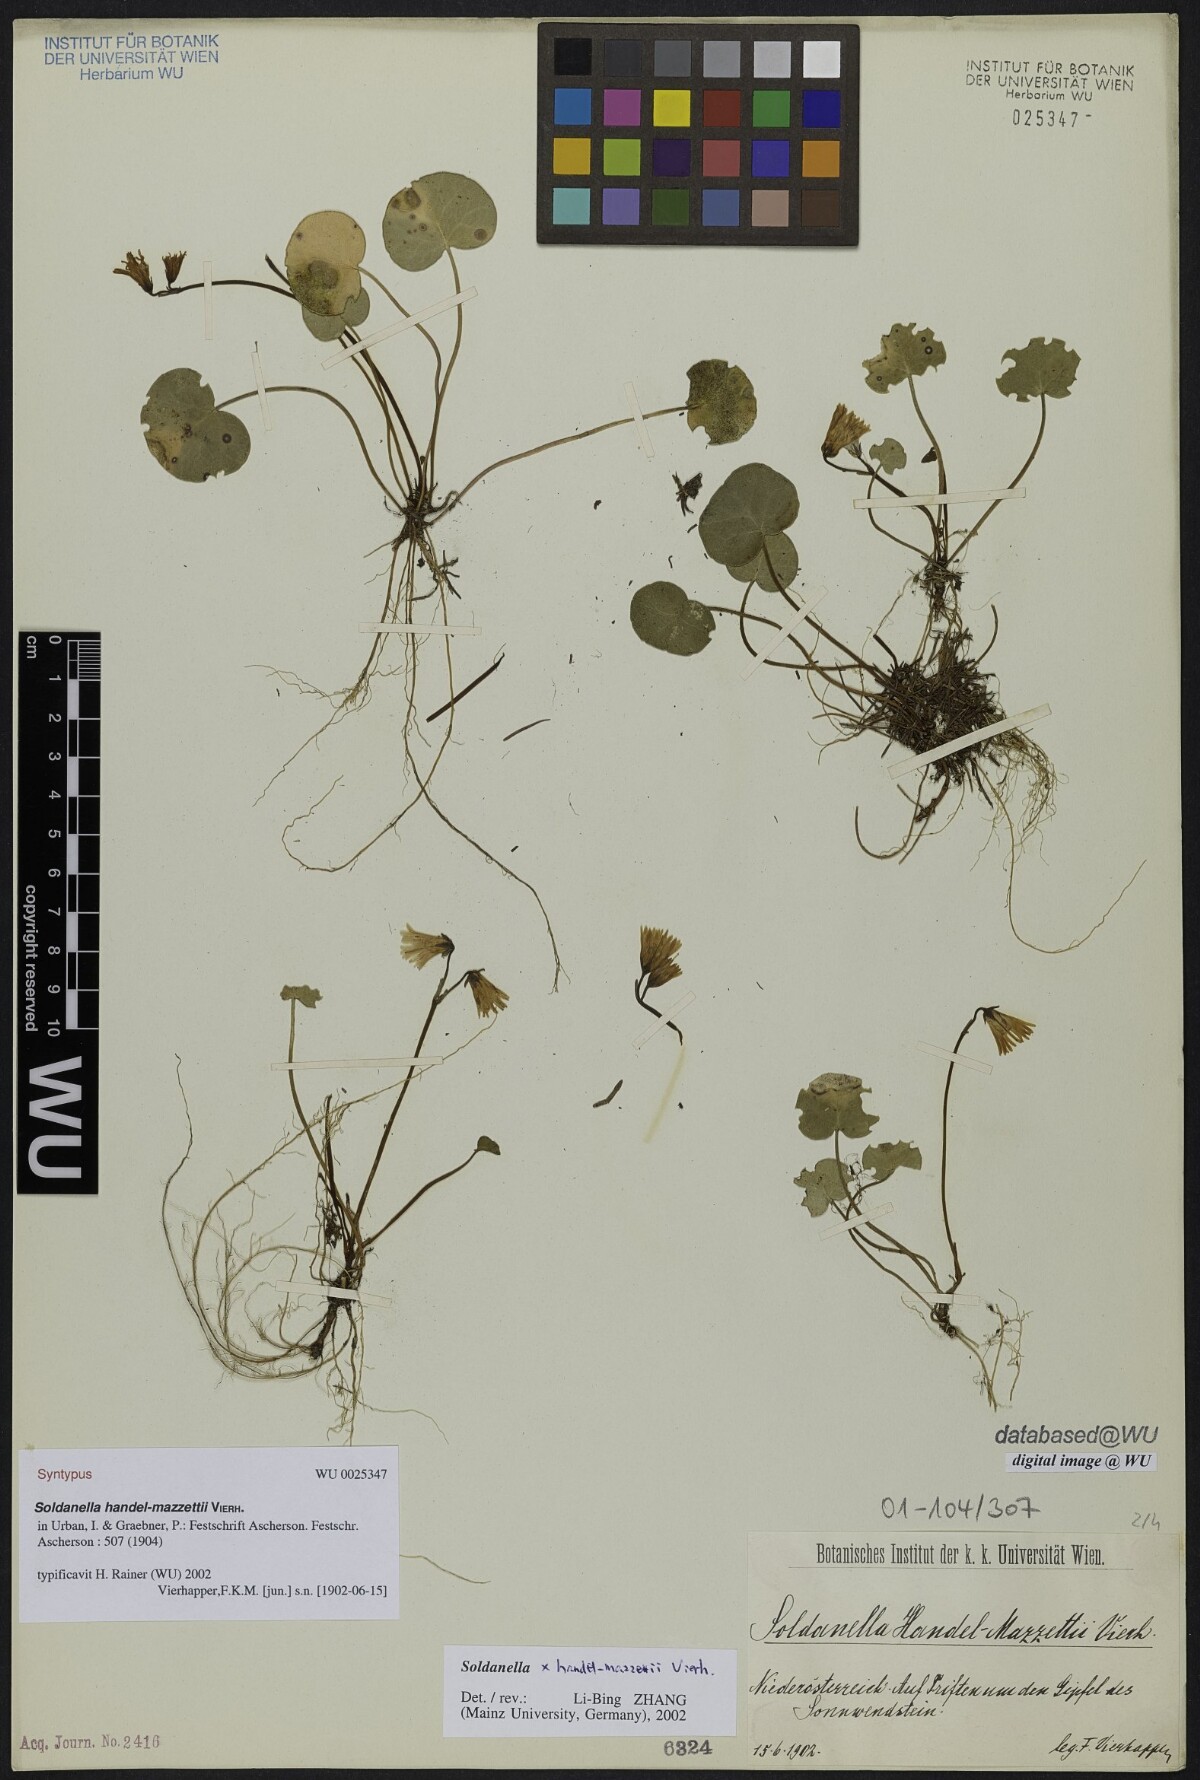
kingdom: Plantae
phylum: Tracheophyta
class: Magnoliopsida
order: Ericales
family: Primulaceae
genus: Soldanella
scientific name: Soldanella handel-mazzettii
